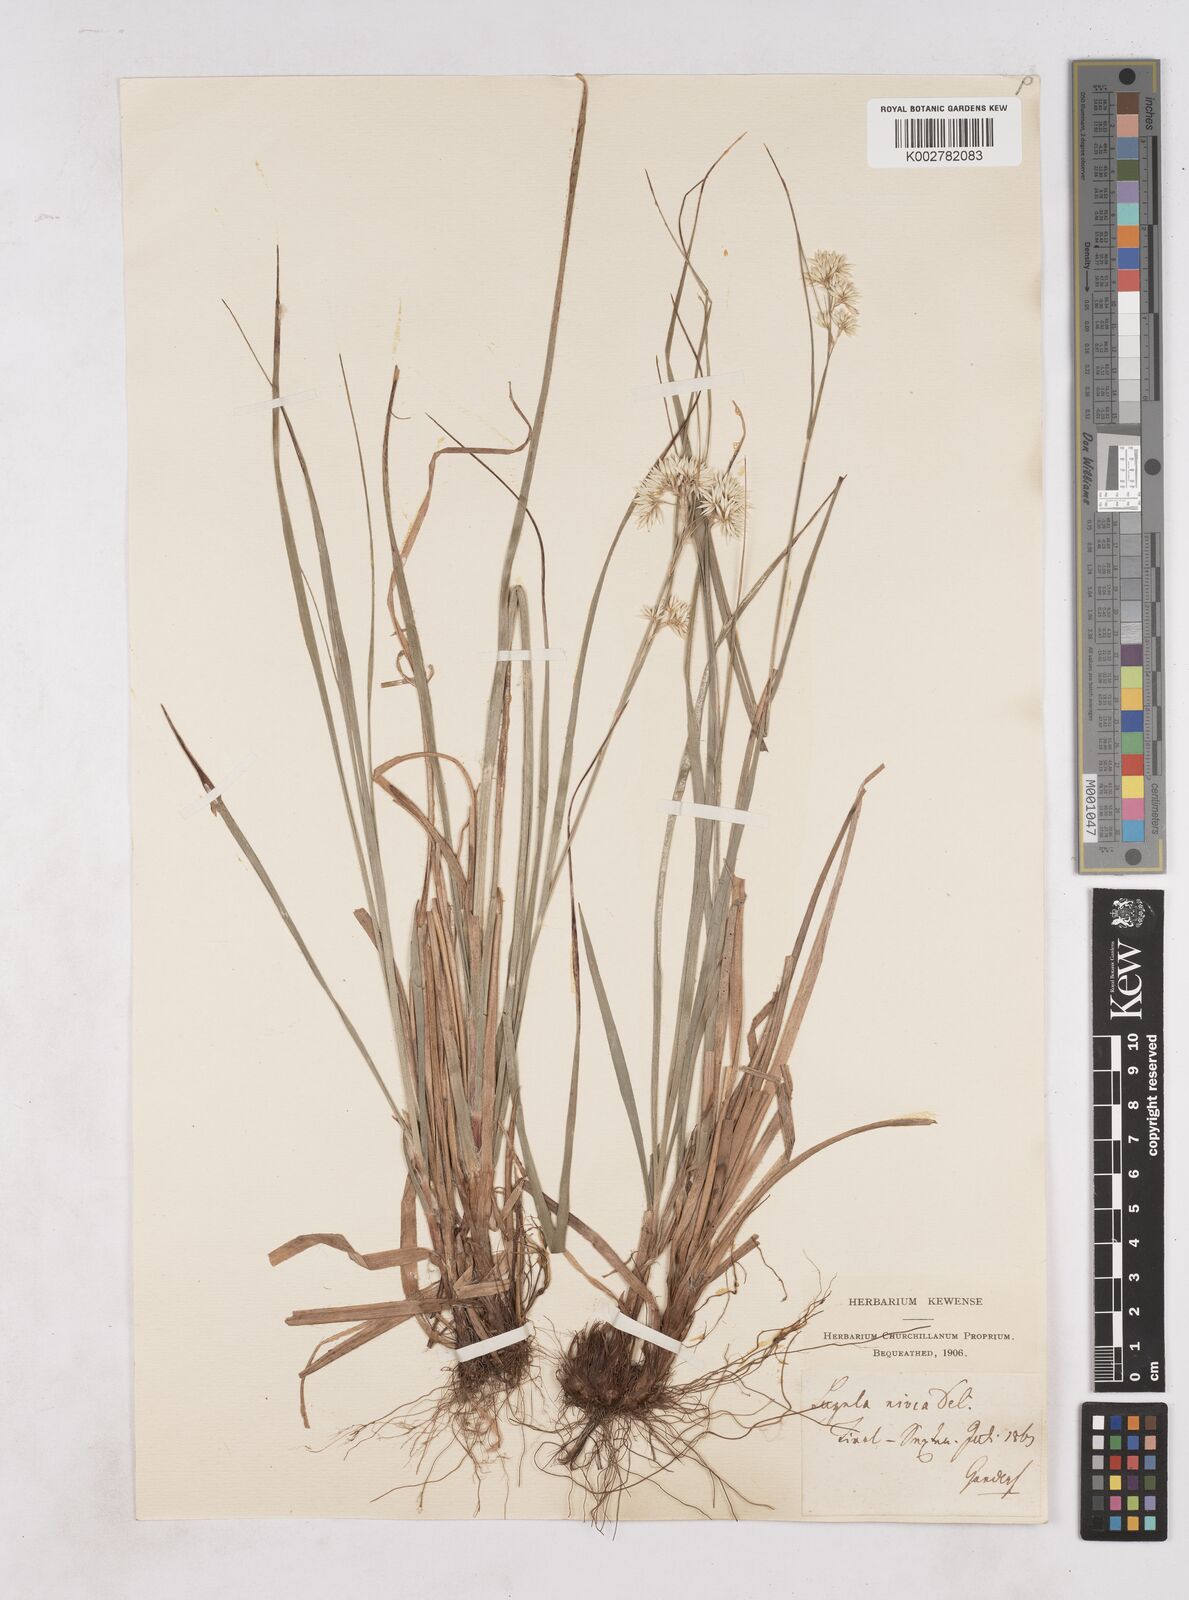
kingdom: Plantae
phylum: Tracheophyta
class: Liliopsida
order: Poales
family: Juncaceae
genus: Luzula
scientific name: Luzula nivea
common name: Snow-white wood-rush
